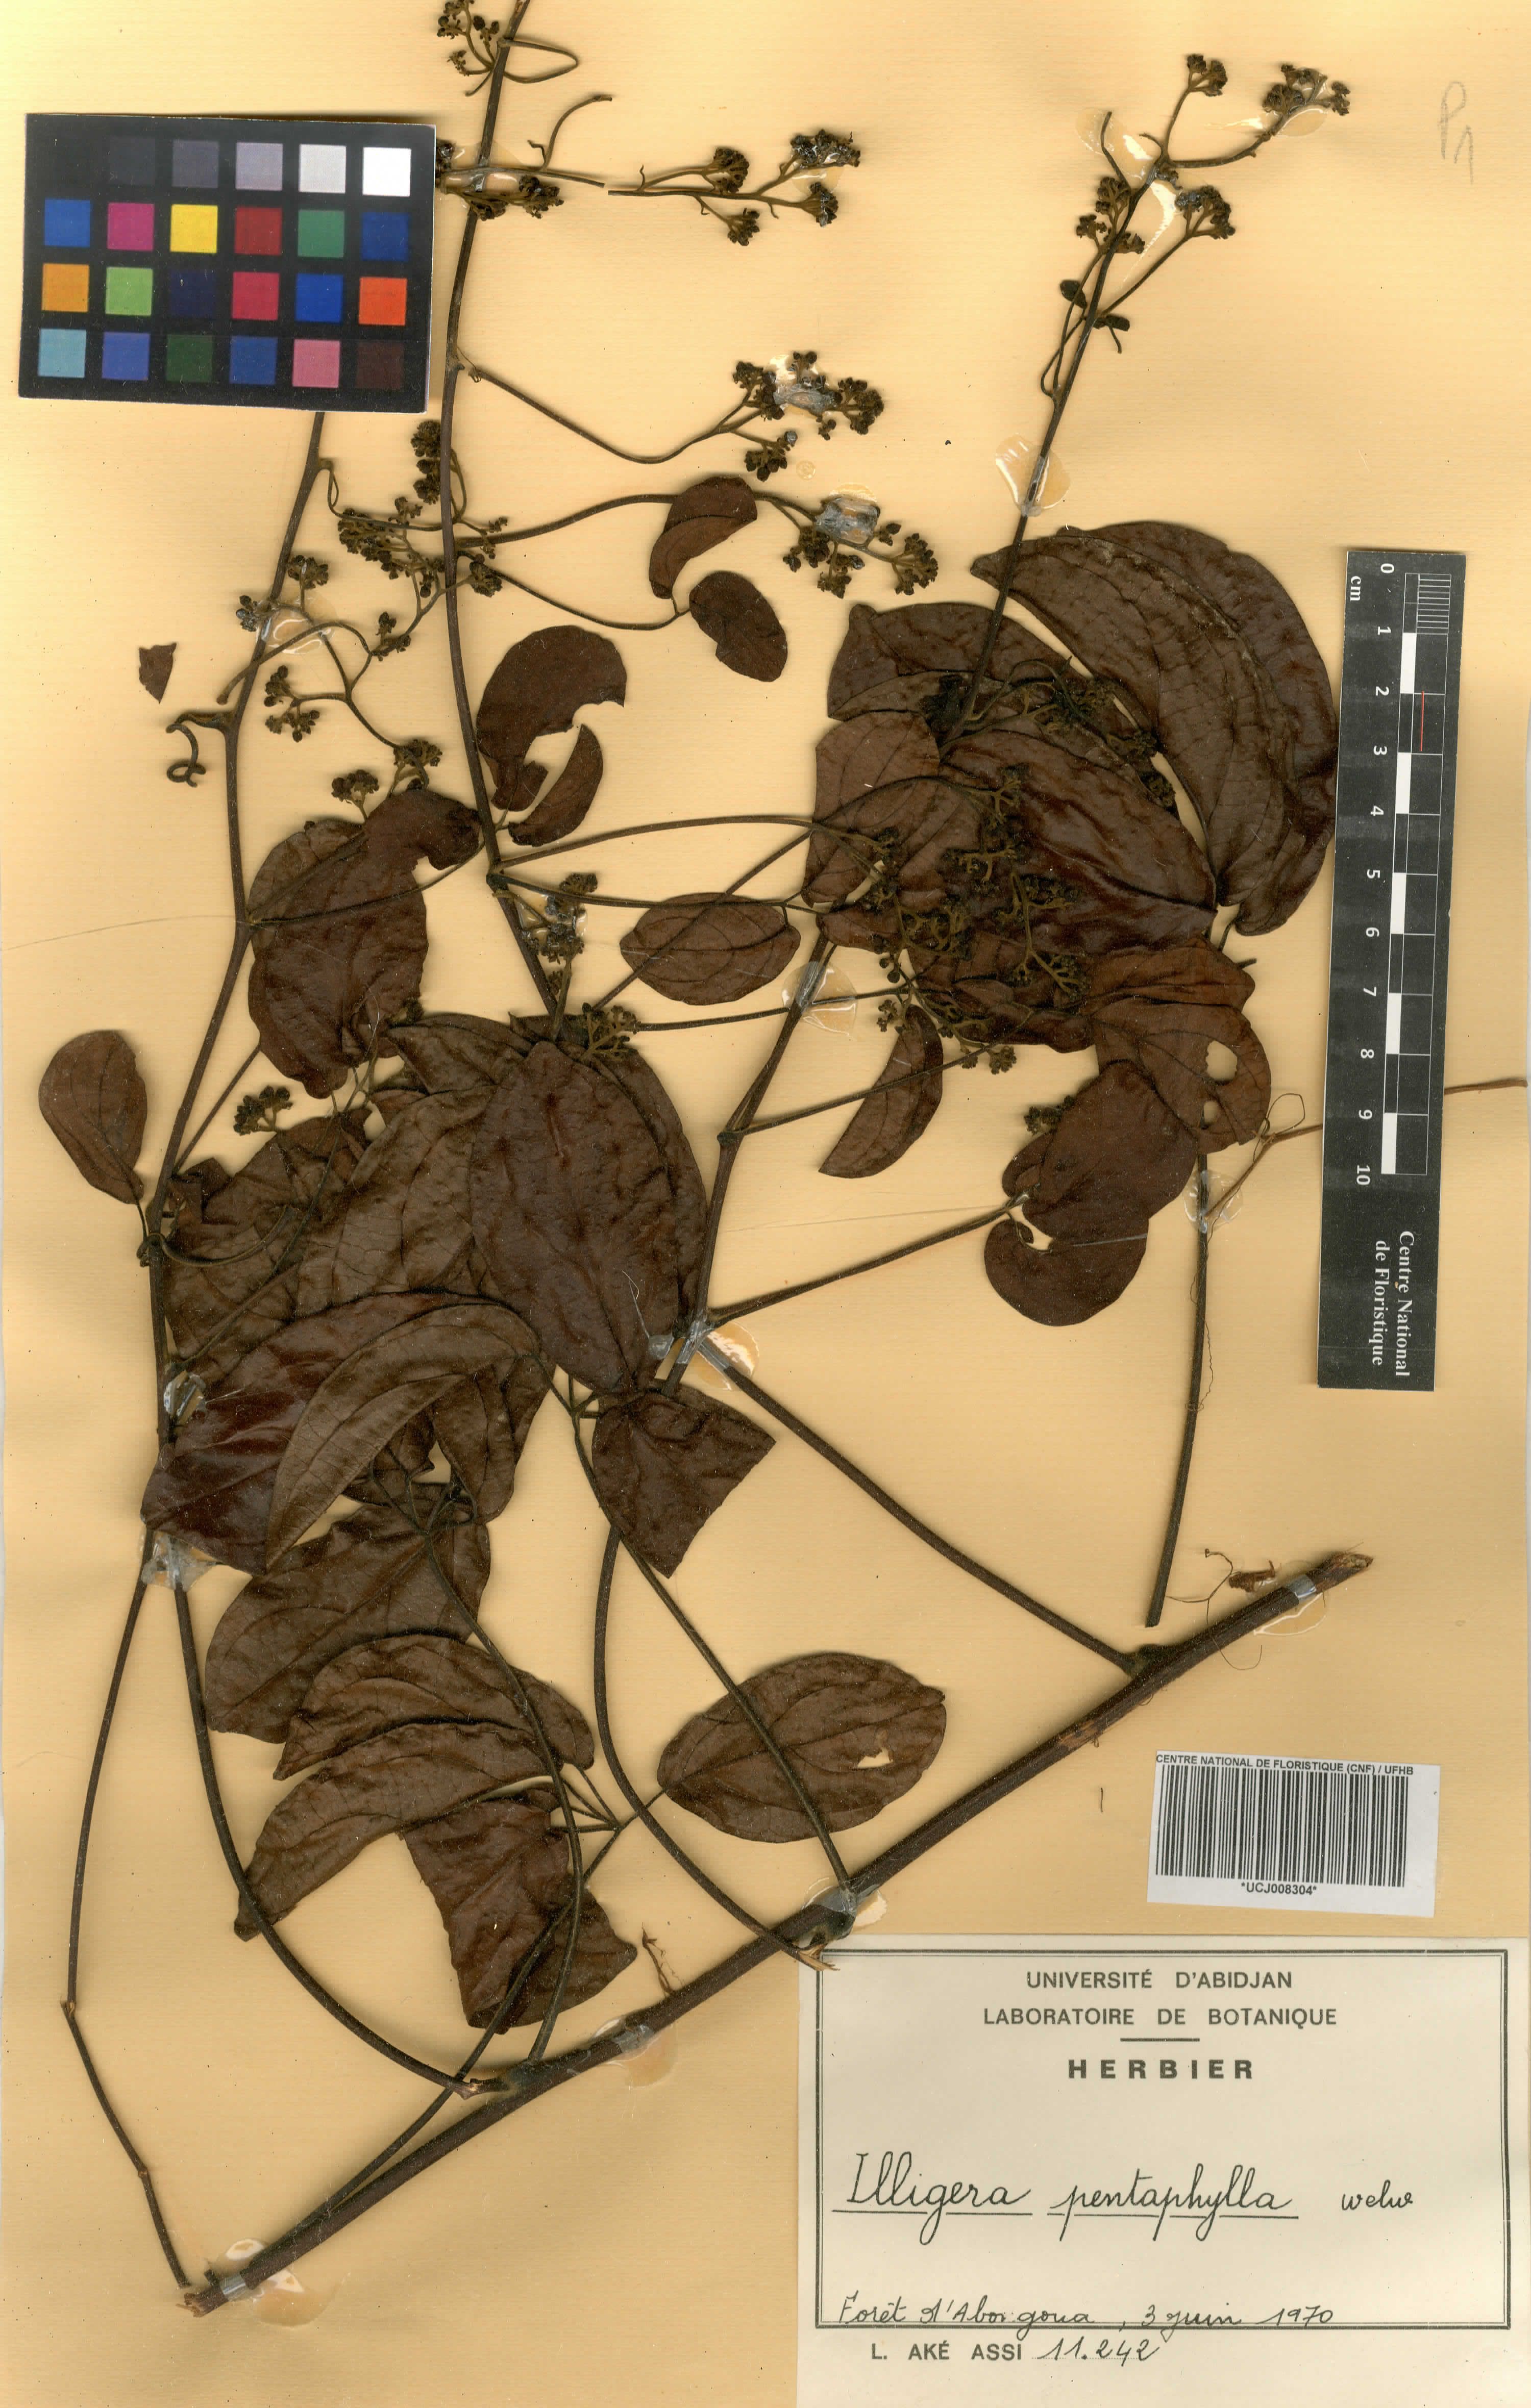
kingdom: Plantae
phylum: Tracheophyta
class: Magnoliopsida
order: Laurales
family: Hernandiaceae
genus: Illigera
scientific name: Illigera pentaphylla
